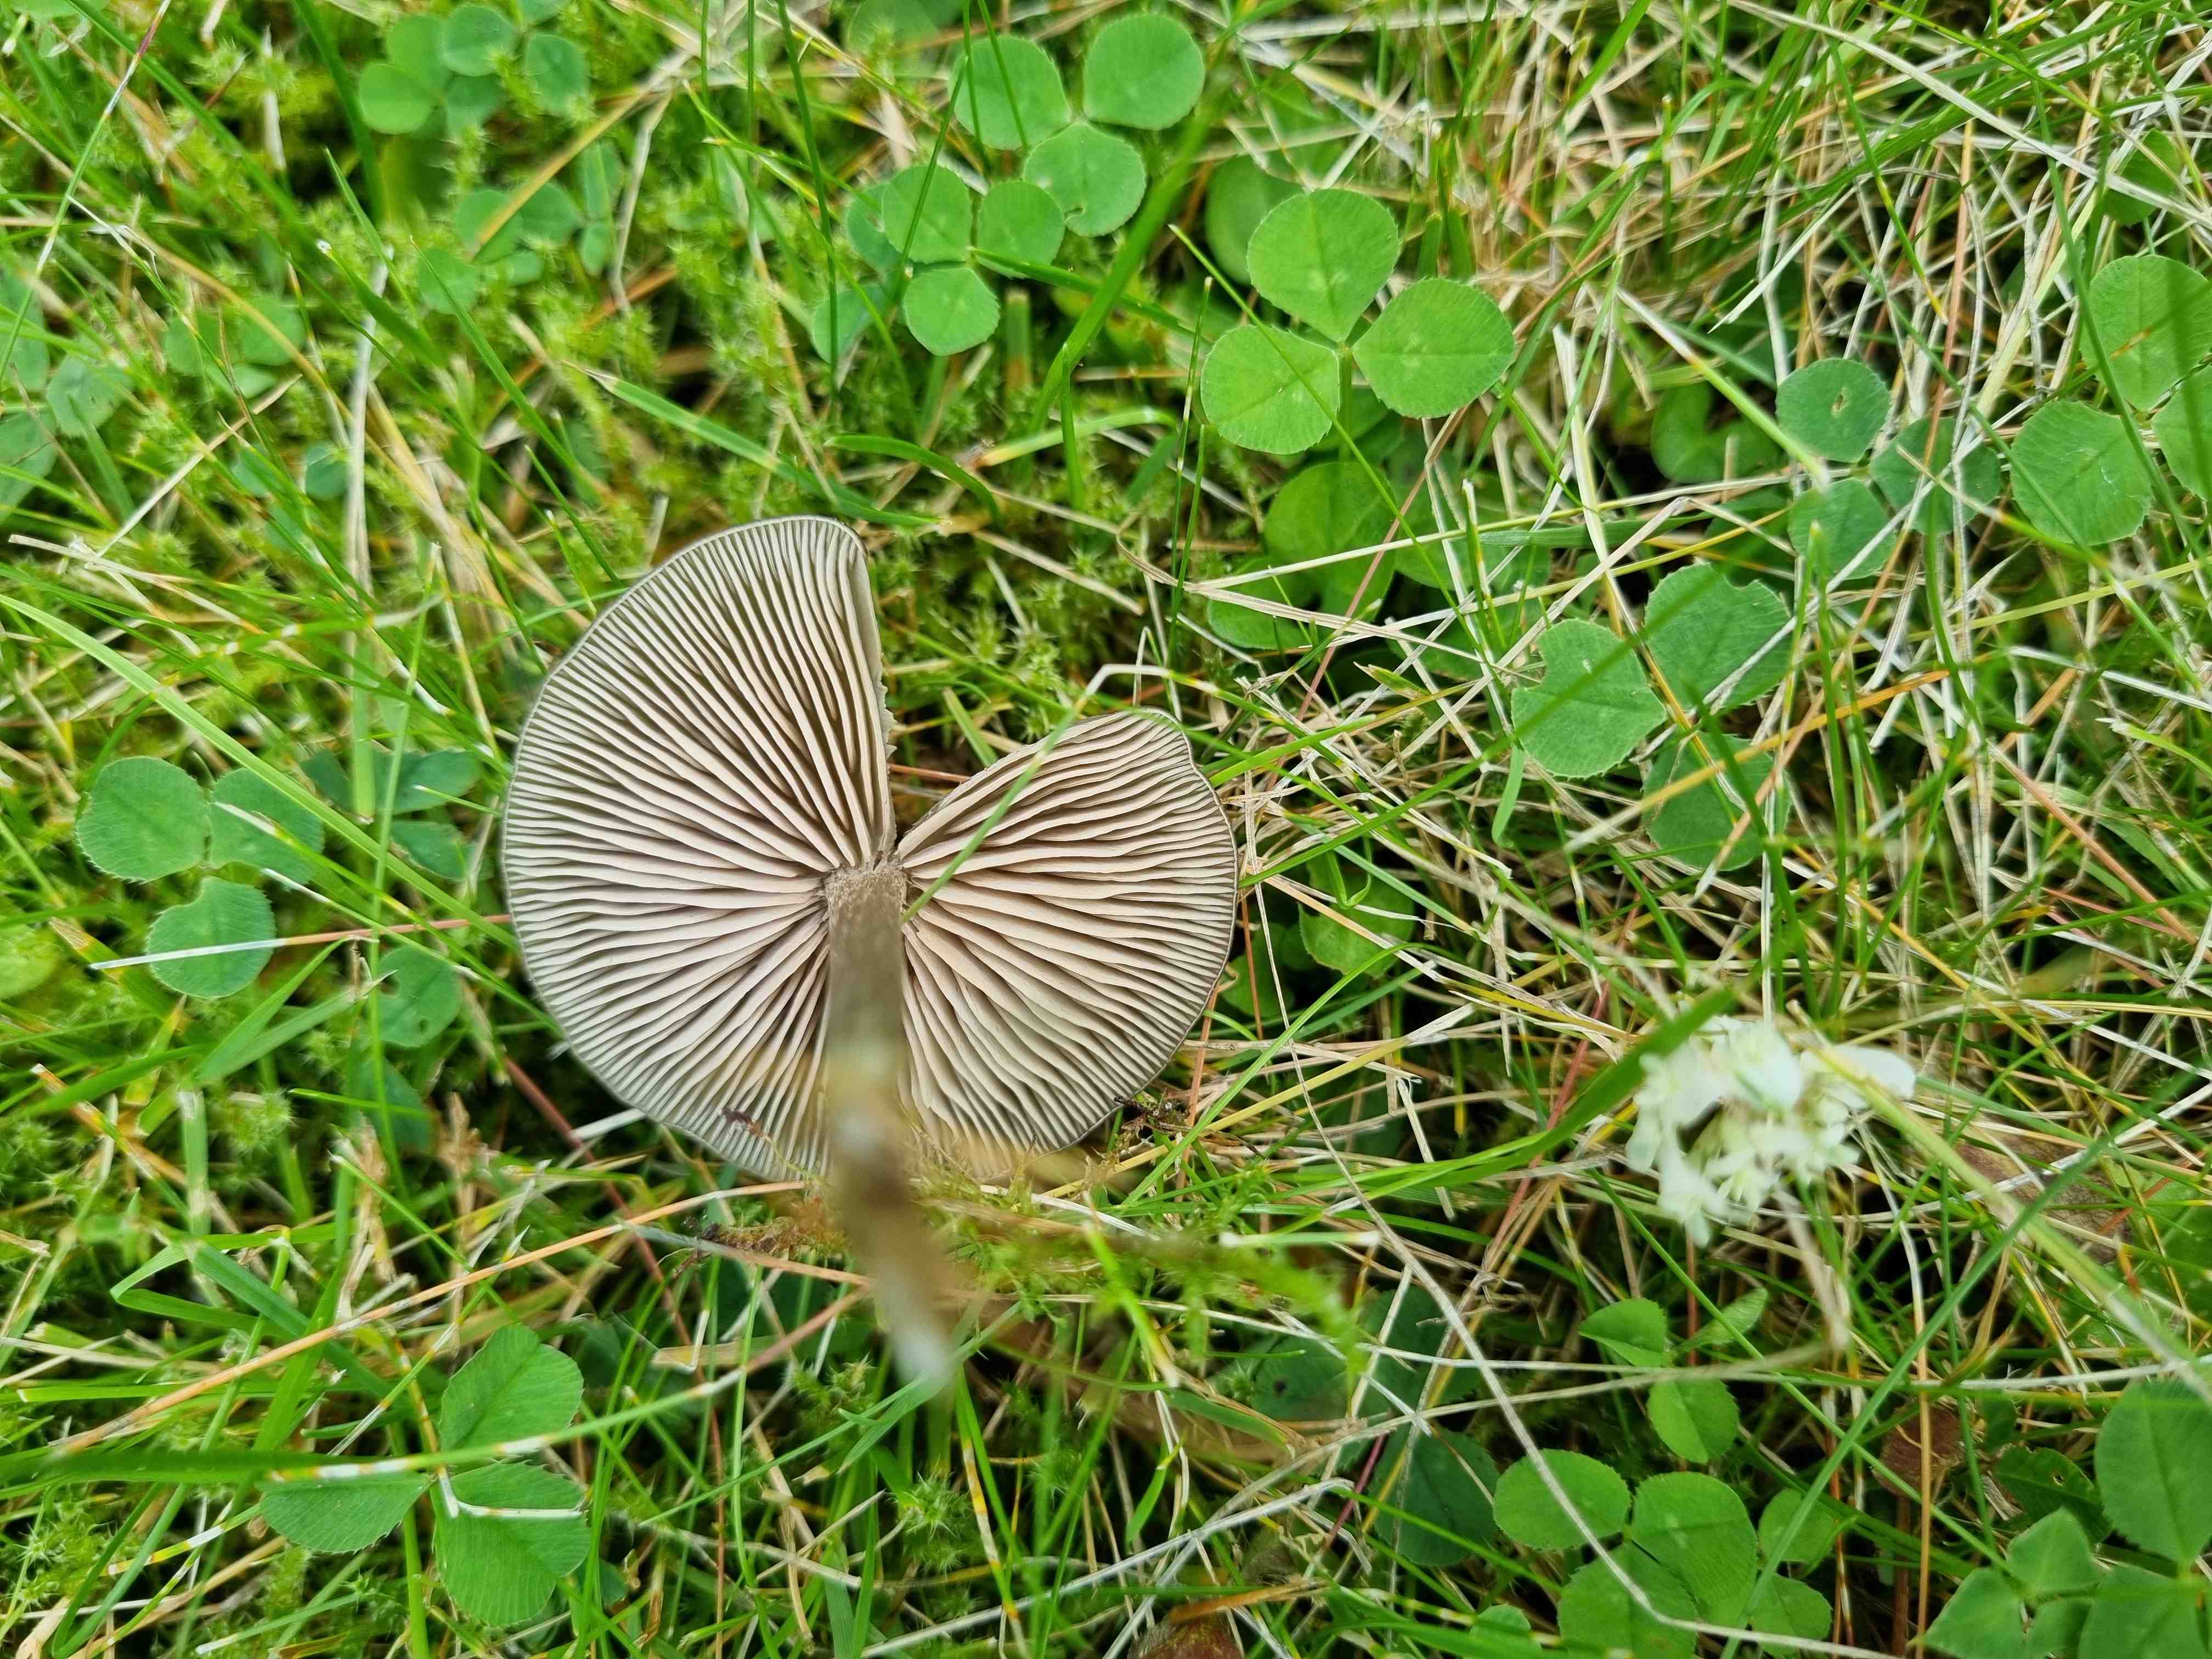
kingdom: Fungi
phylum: Basidiomycota
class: Agaricomycetes
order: Agaricales
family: Entolomataceae
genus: Entoloma
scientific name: Entoloma
